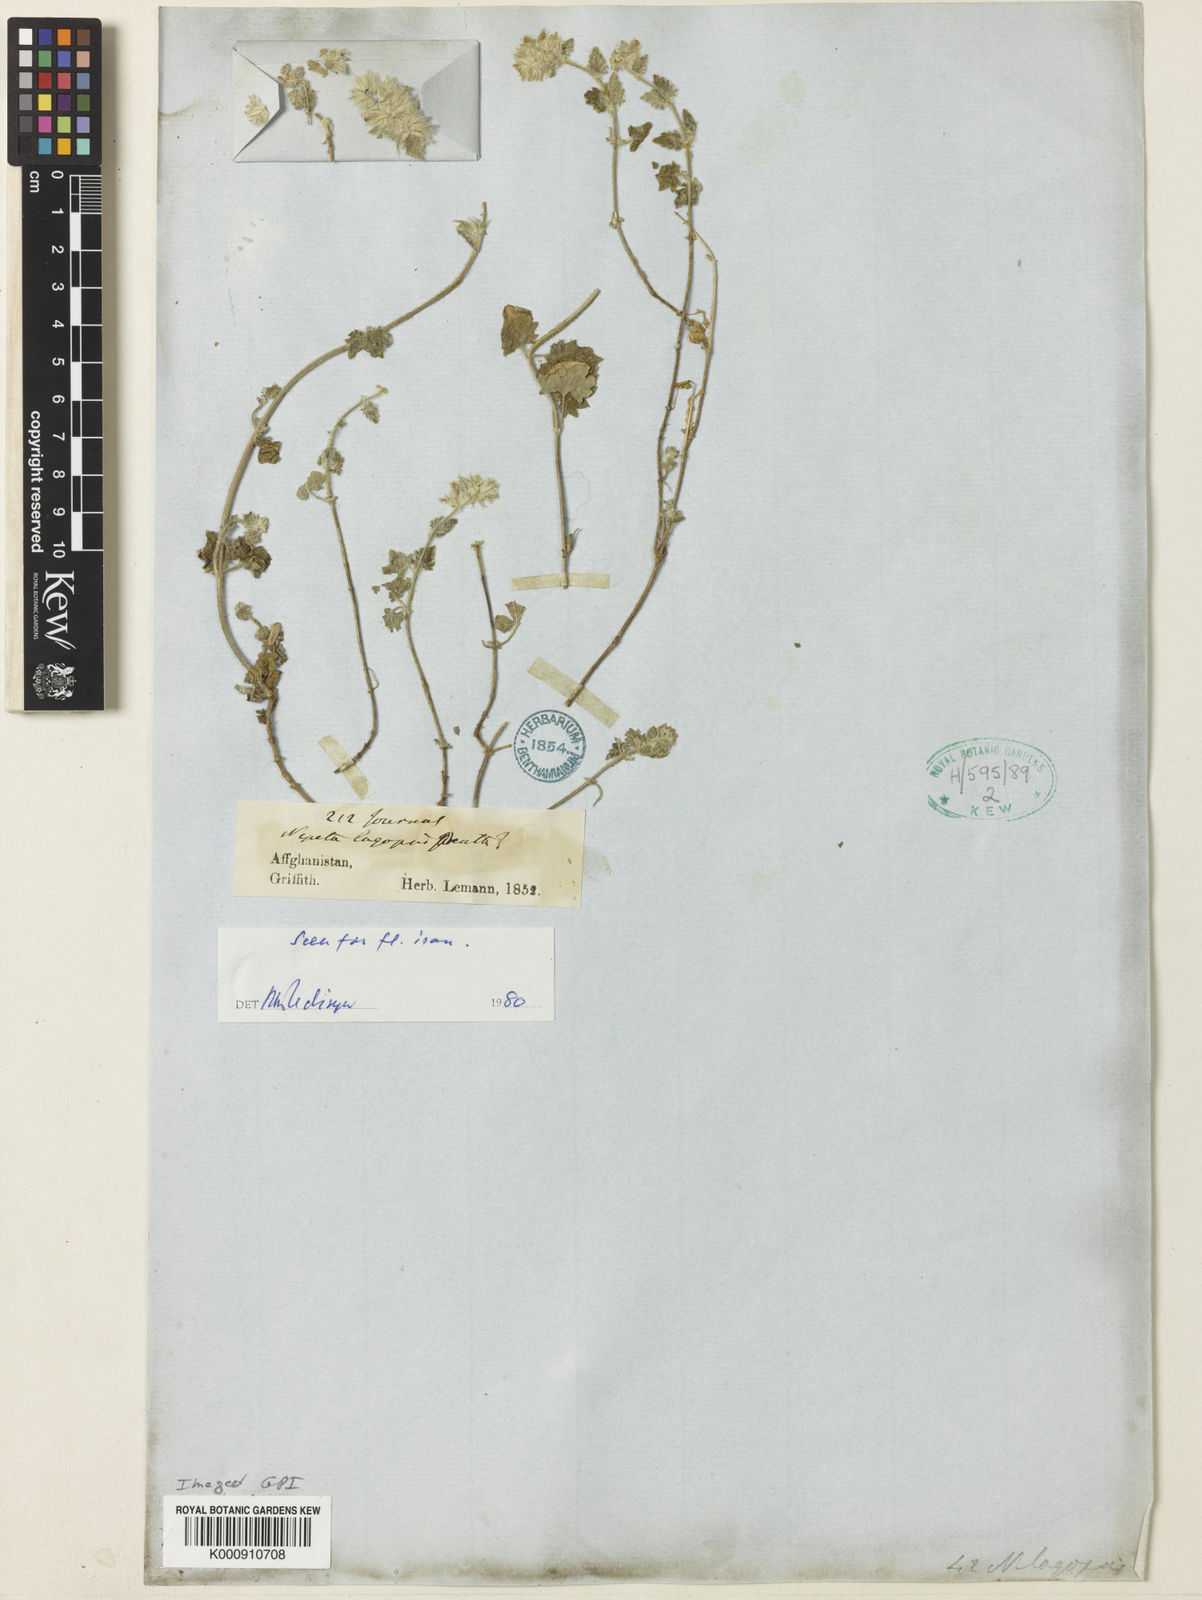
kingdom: Plantae
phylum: Tracheophyta
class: Magnoliopsida
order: Lamiales
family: Lamiaceae
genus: Nepeta
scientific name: Nepeta lagopsis
